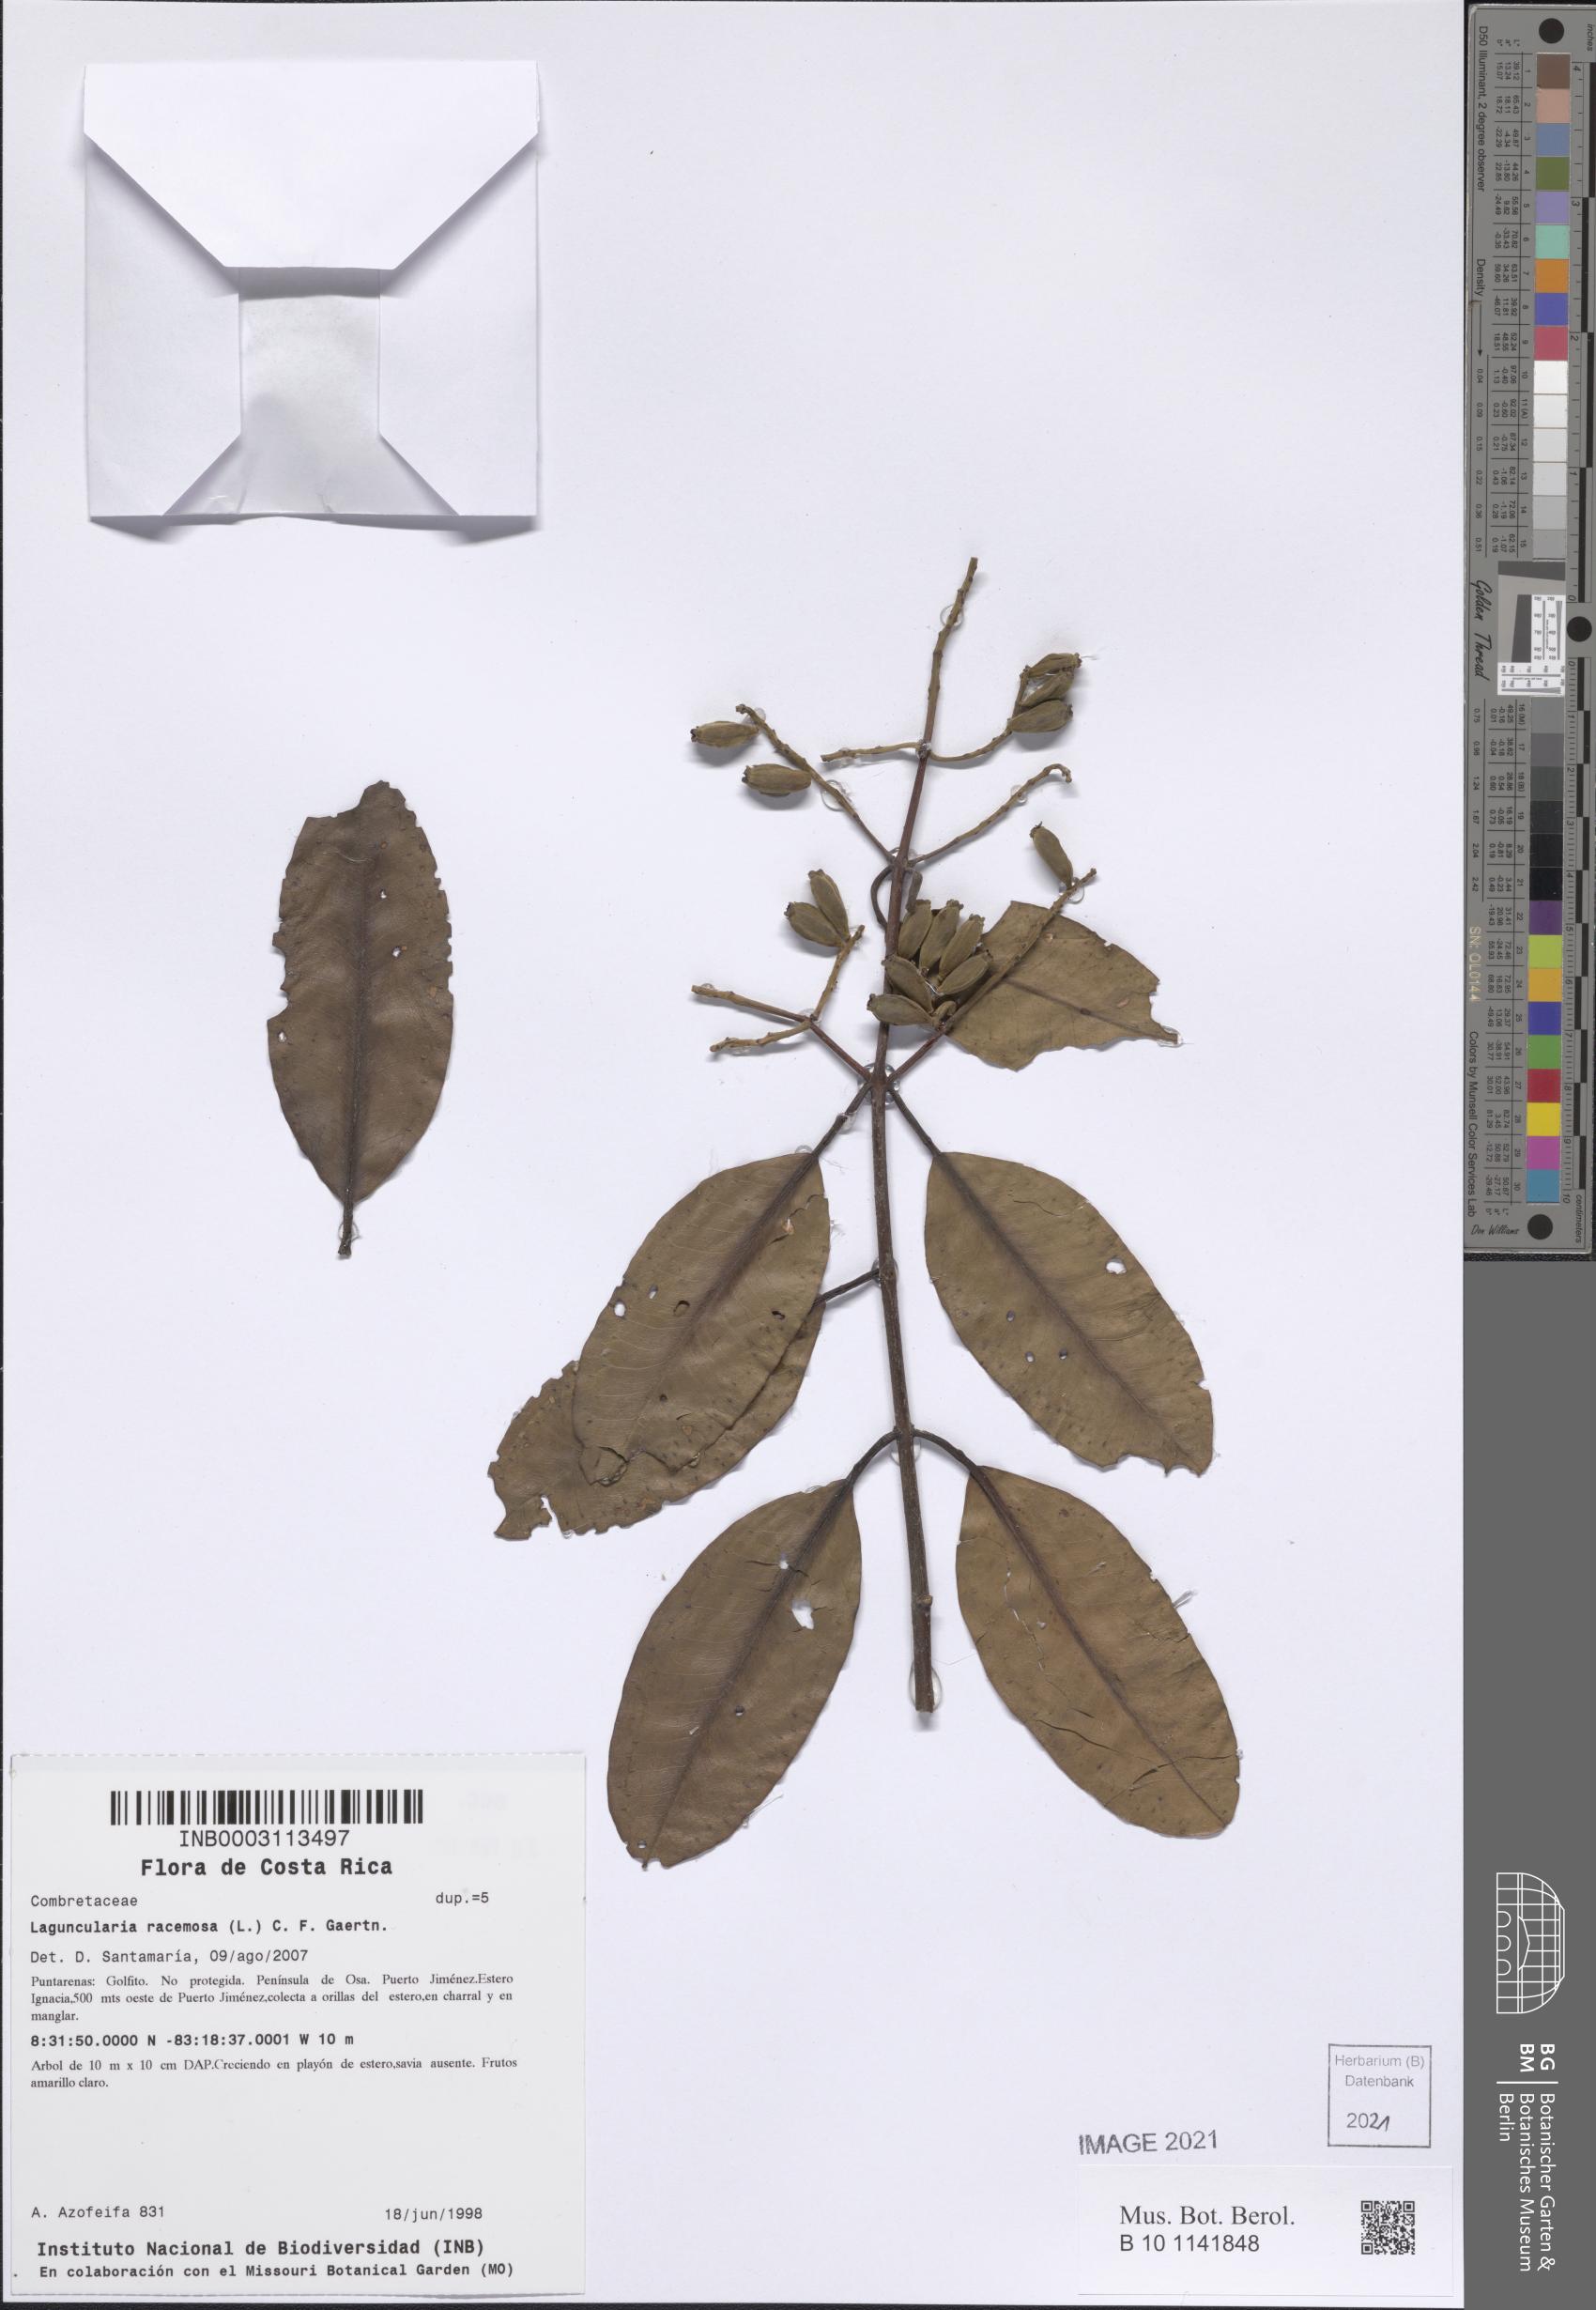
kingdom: Plantae
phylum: Tracheophyta
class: Magnoliopsida
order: Myrtales
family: Combretaceae
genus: Laguncularia
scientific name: Laguncularia racemosa
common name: White mangrove
